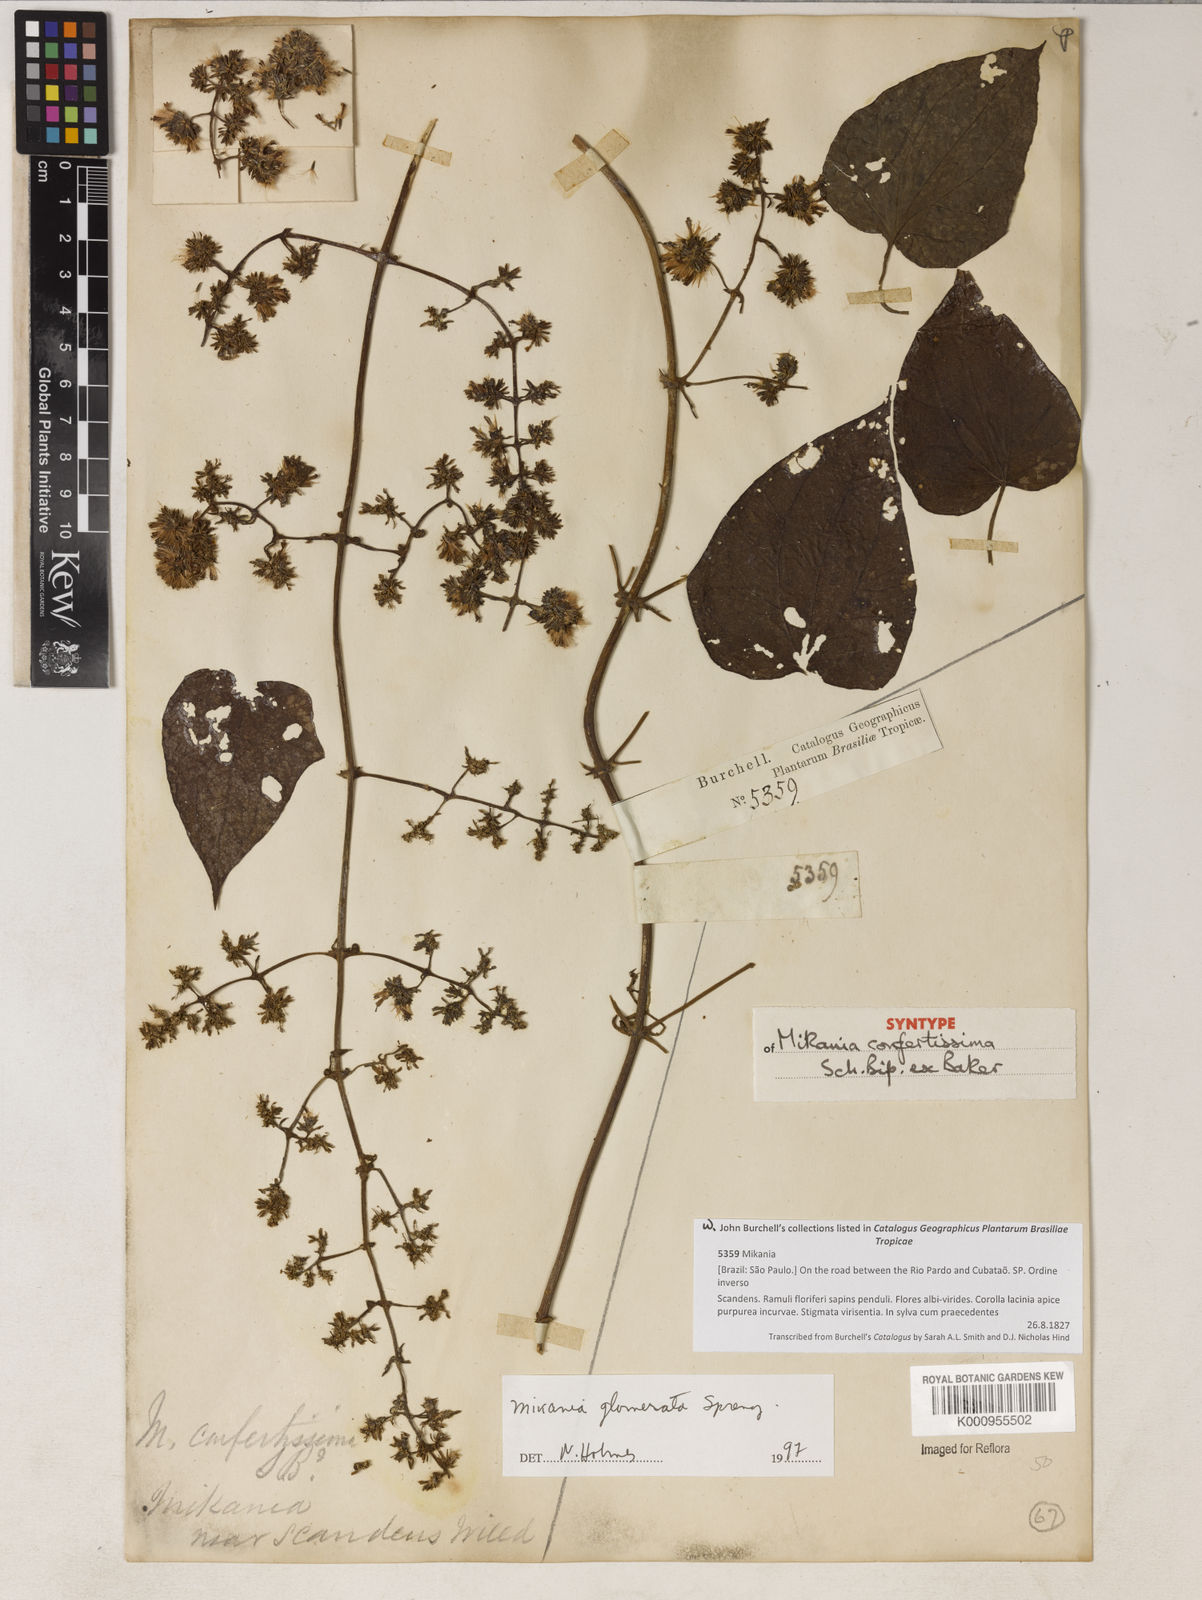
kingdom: Plantae
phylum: Tracheophyta
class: Magnoliopsida
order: Asterales
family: Asteraceae
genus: Mikania
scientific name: Mikania glomerata
